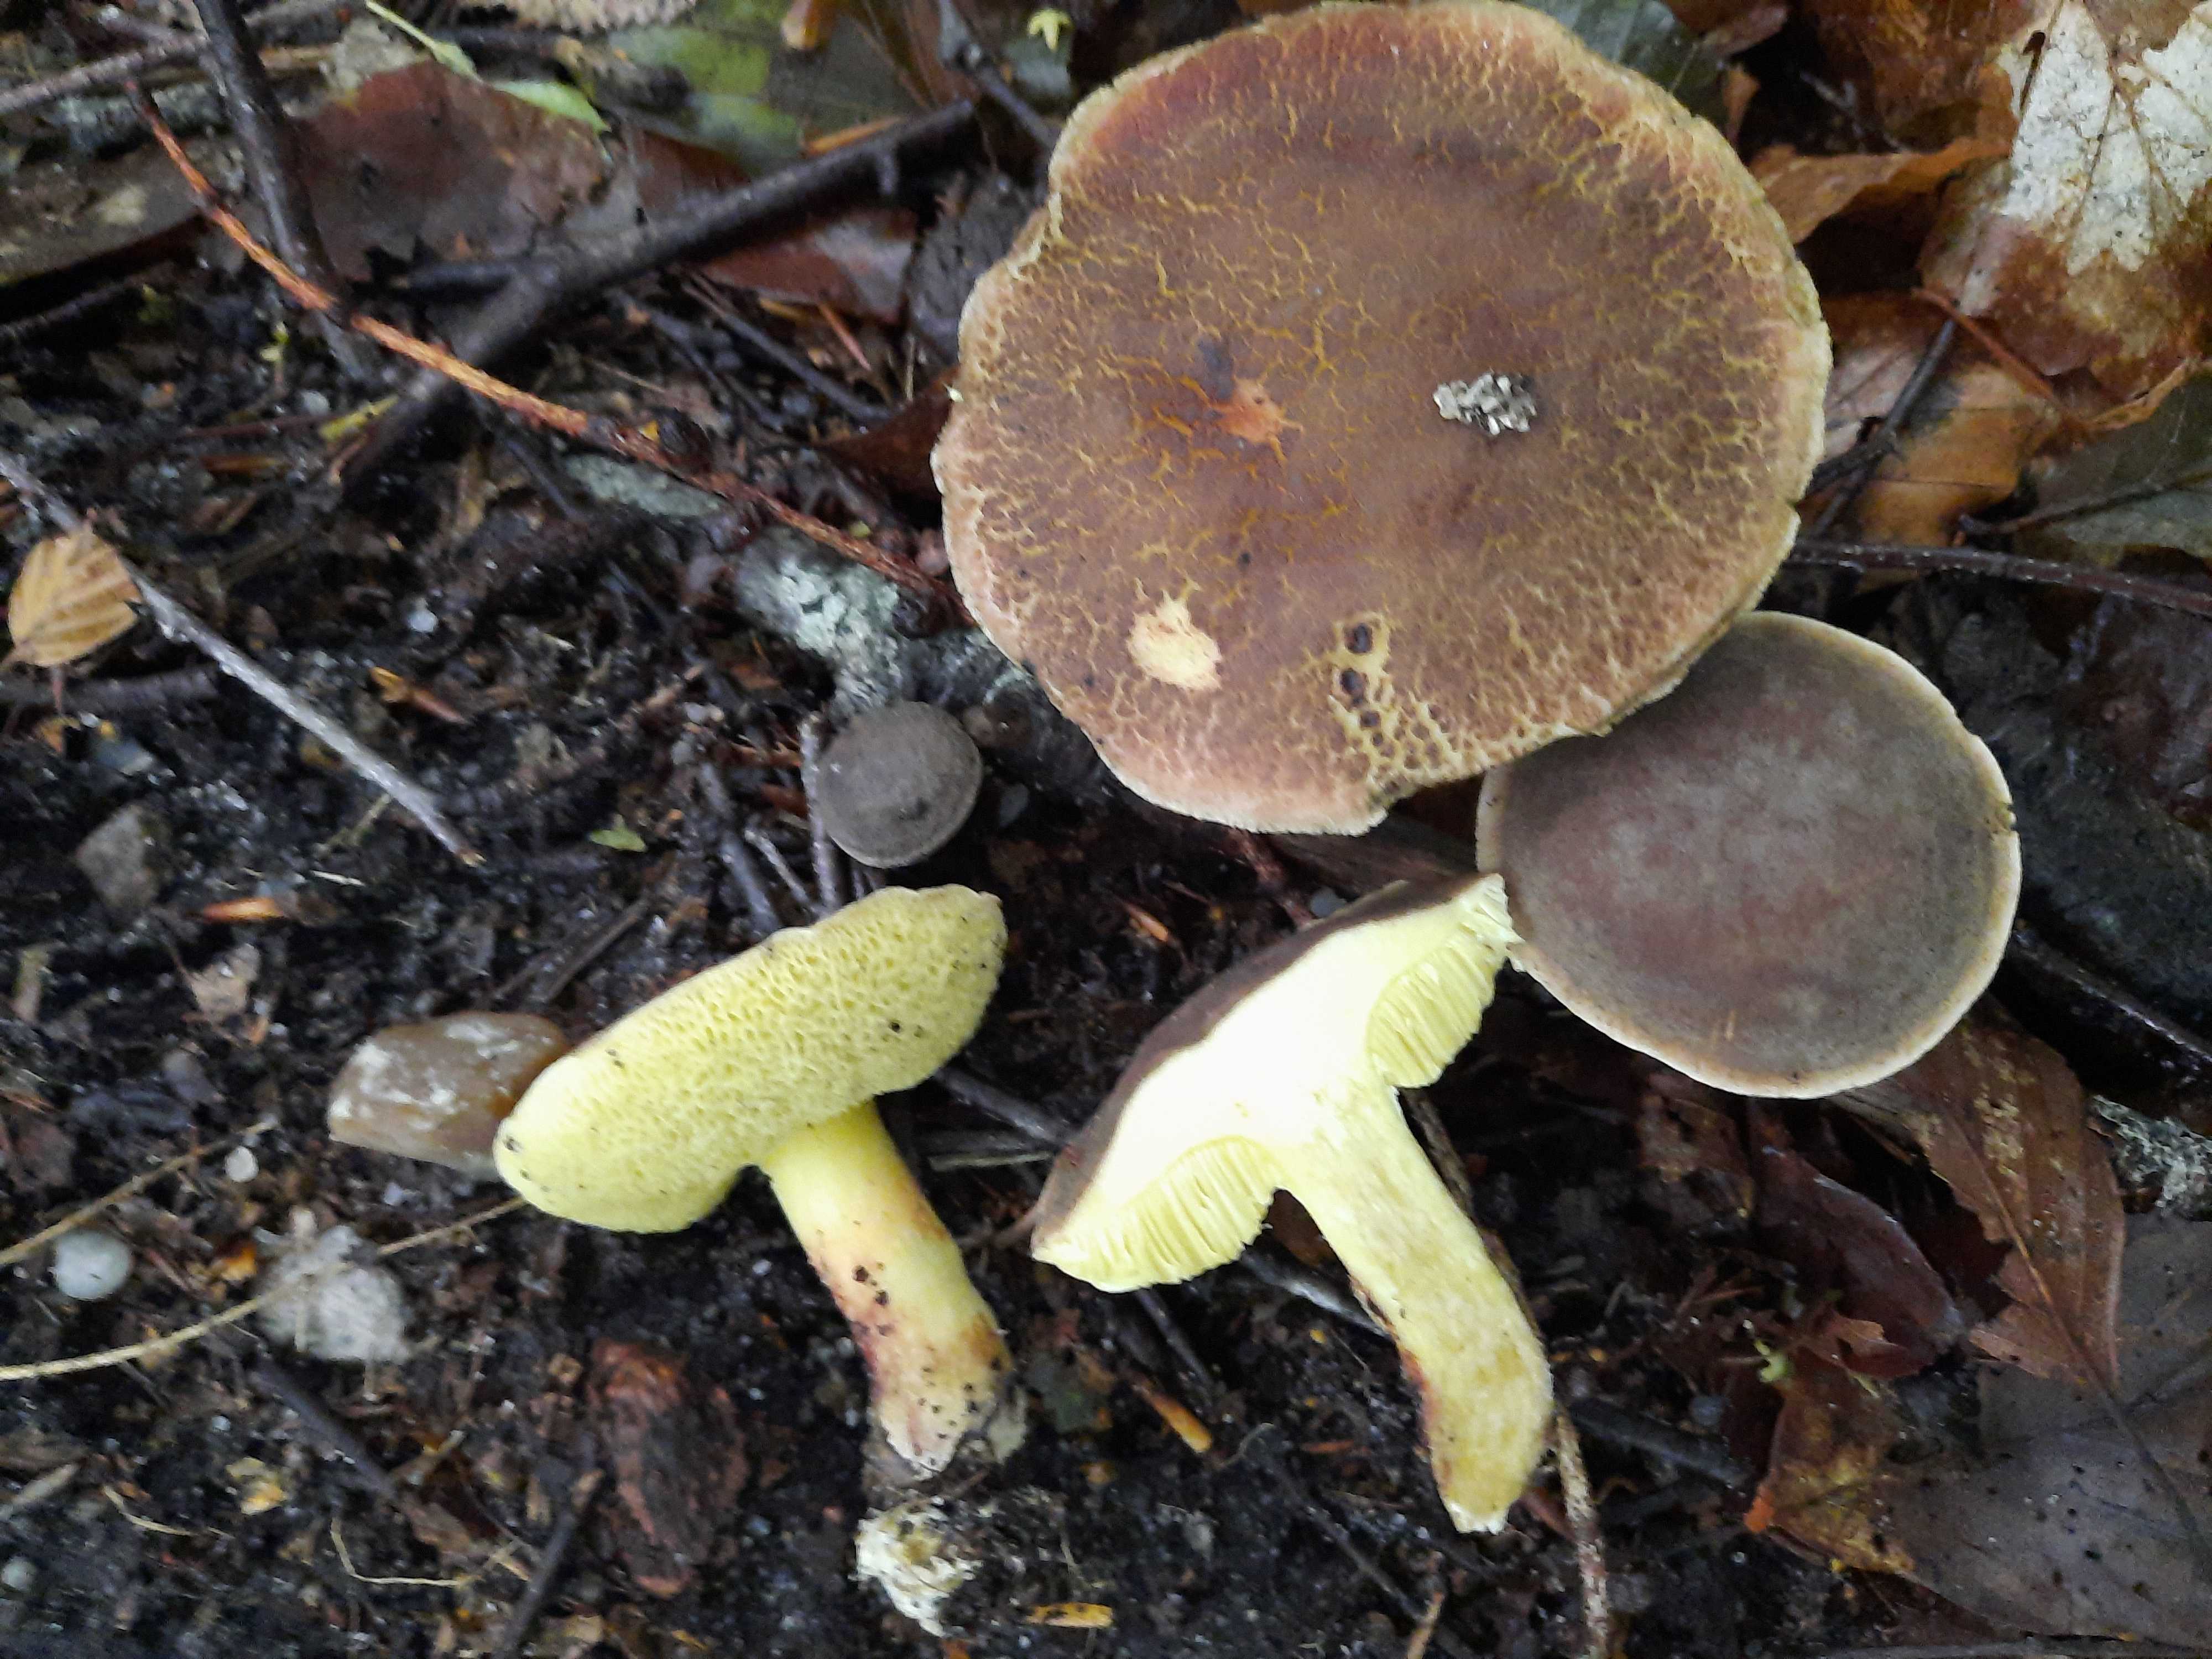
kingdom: Fungi
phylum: Basidiomycota
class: Agaricomycetes
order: Boletales
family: Boletaceae
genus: Xerocomellus
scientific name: Xerocomellus chrysenteron
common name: rødsprukken rørhat
